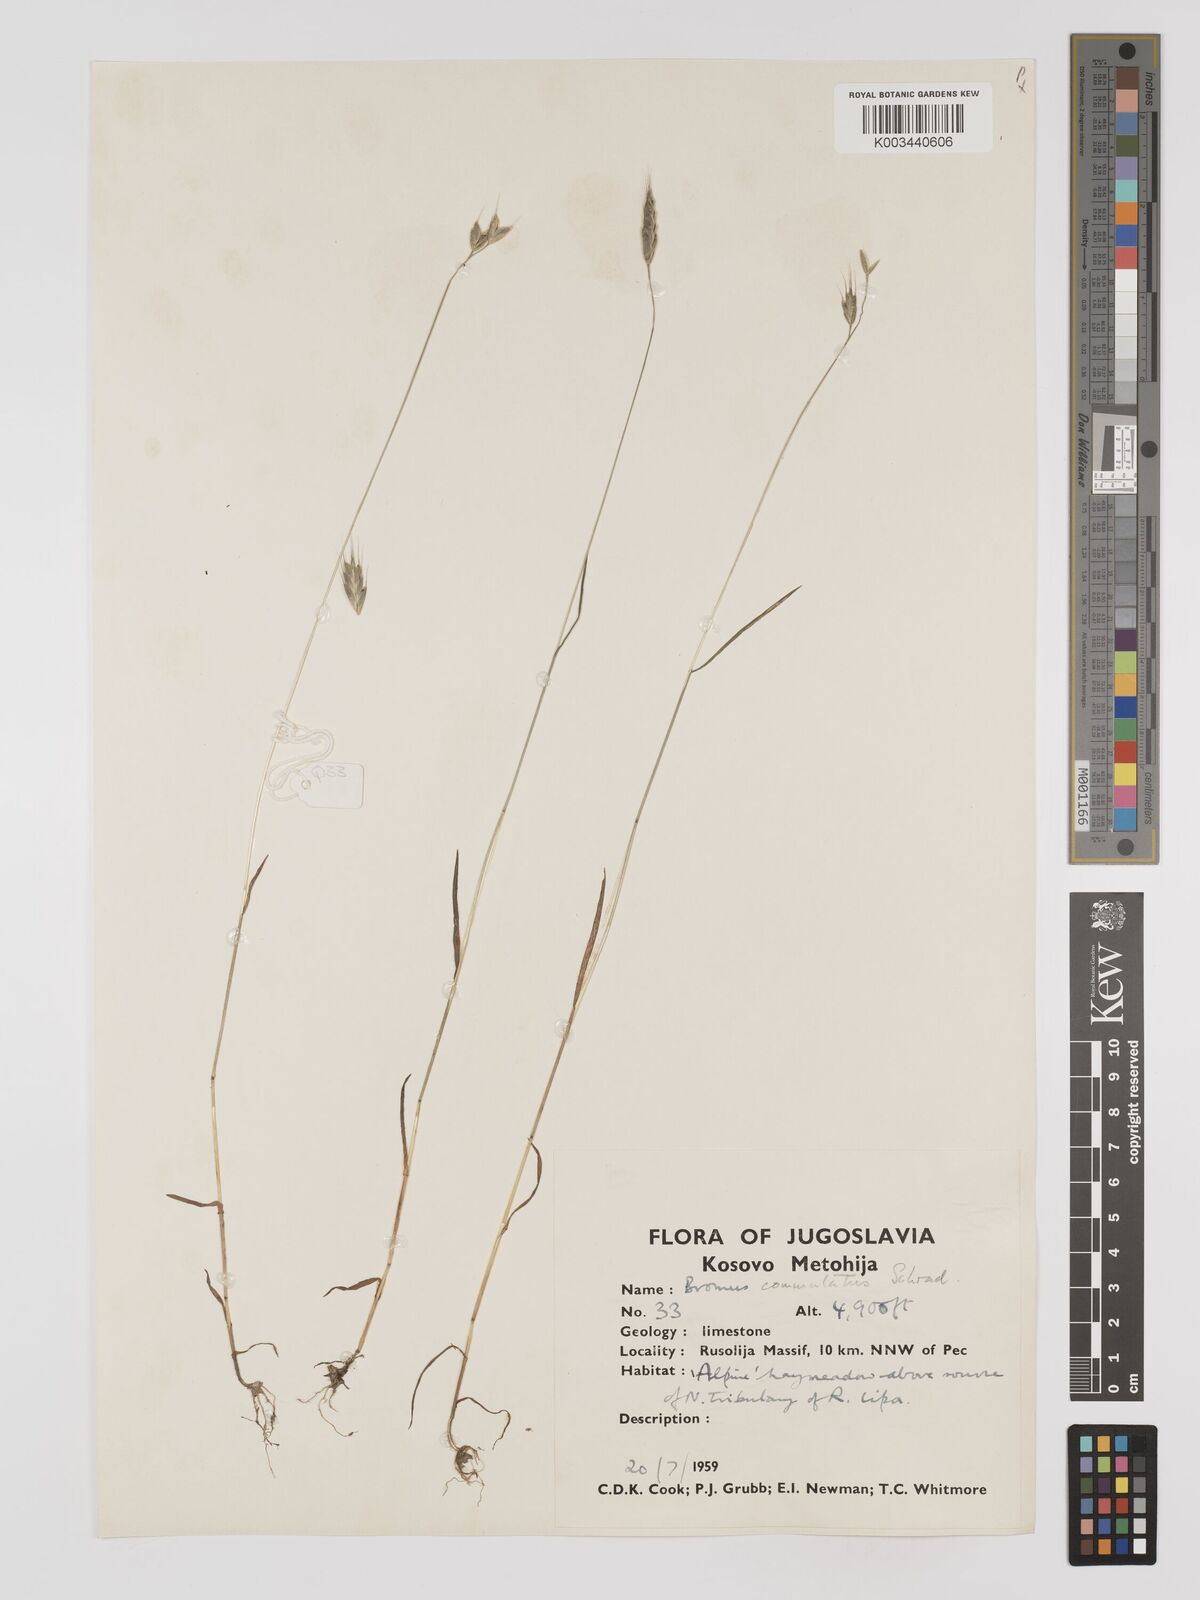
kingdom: Plantae
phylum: Tracheophyta
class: Liliopsida
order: Poales
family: Poaceae
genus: Bromus
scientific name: Bromus racemosus
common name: Bald brome
